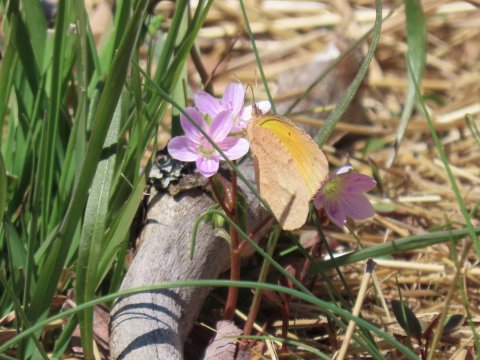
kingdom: Animalia
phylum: Arthropoda
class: Insecta
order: Lepidoptera
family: Pieridae
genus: Abaeis
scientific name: Abaeis nicippe
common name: Sleepy Orange
